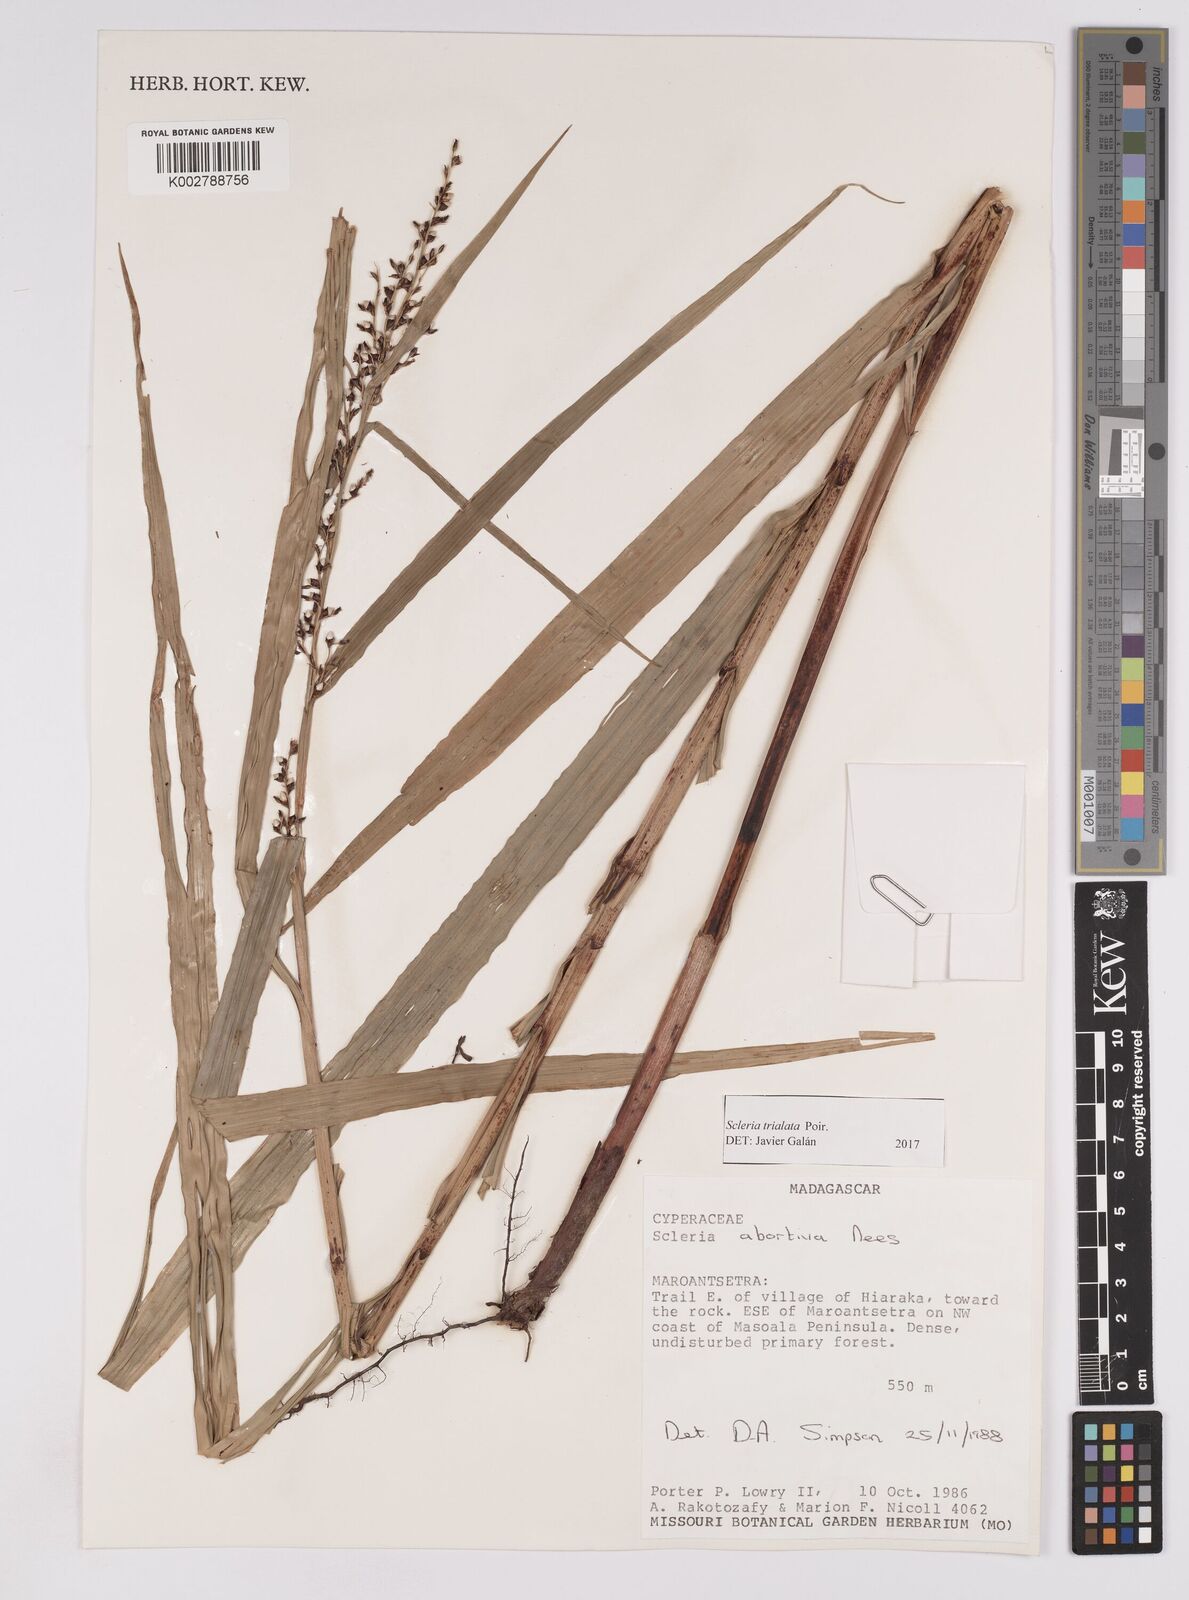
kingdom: Plantae
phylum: Tracheophyta
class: Liliopsida
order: Poales
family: Cyperaceae
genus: Scleria
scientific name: Scleria trialata
